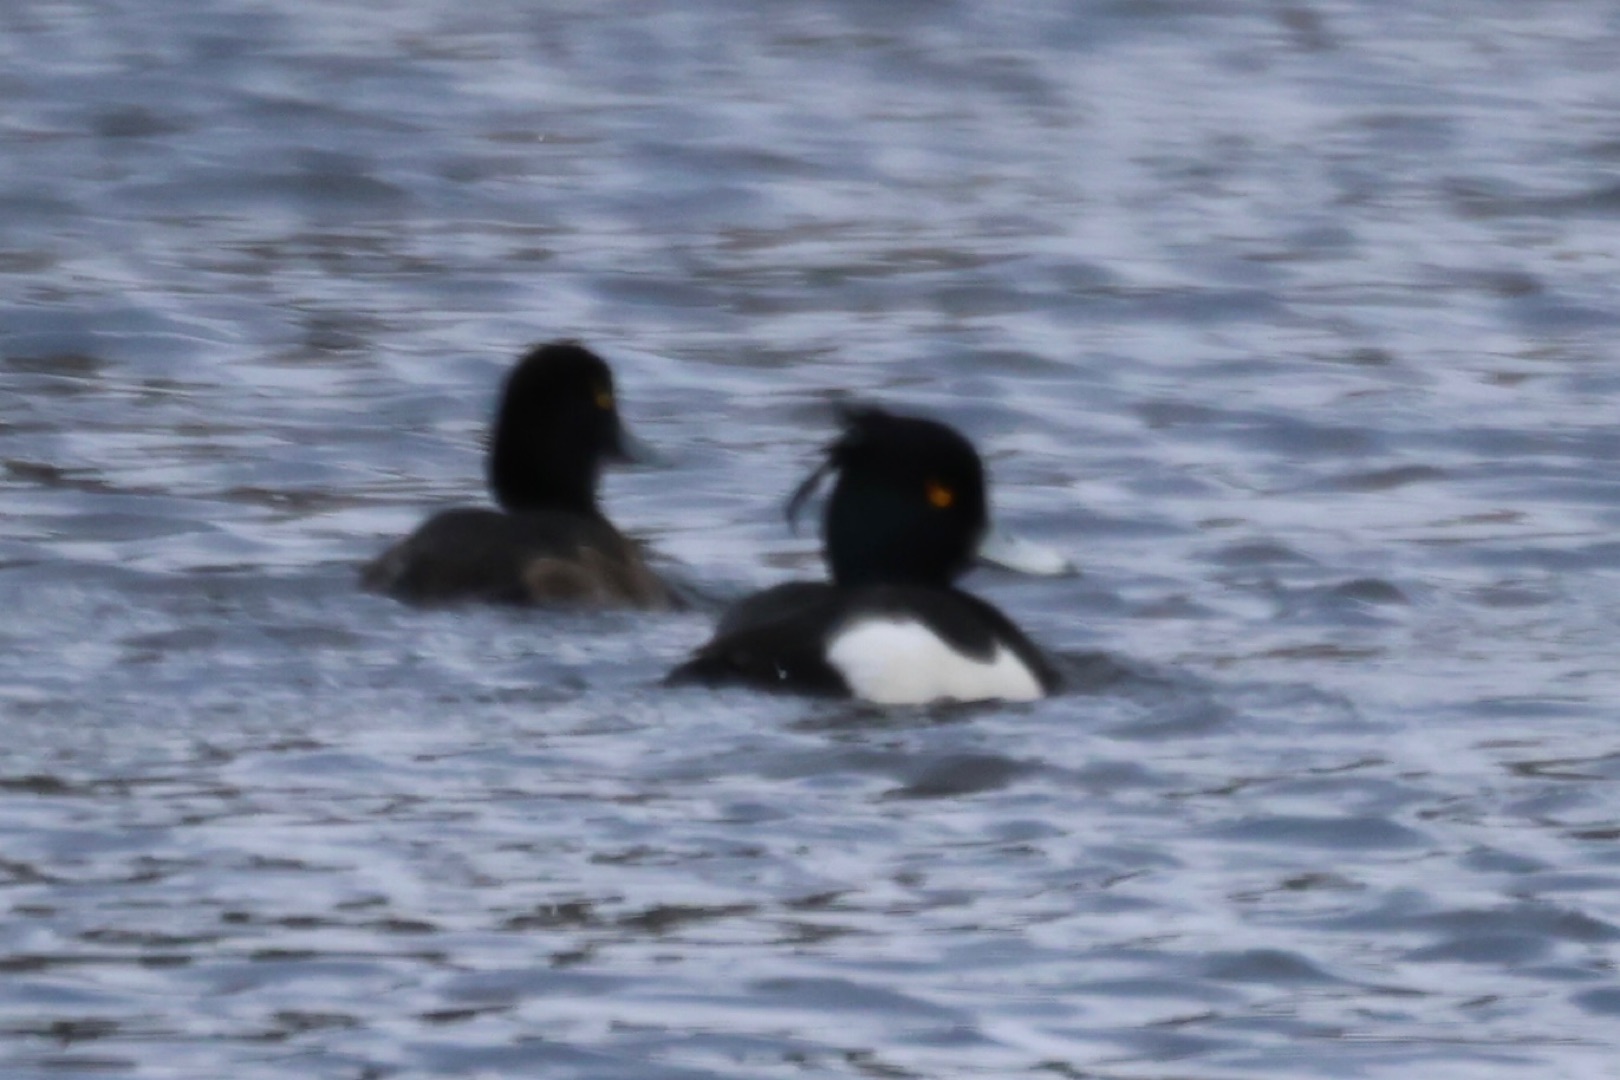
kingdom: Animalia
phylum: Chordata
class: Aves
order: Anseriformes
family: Anatidae
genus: Aythya
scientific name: Aythya fuligula
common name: Troldand
